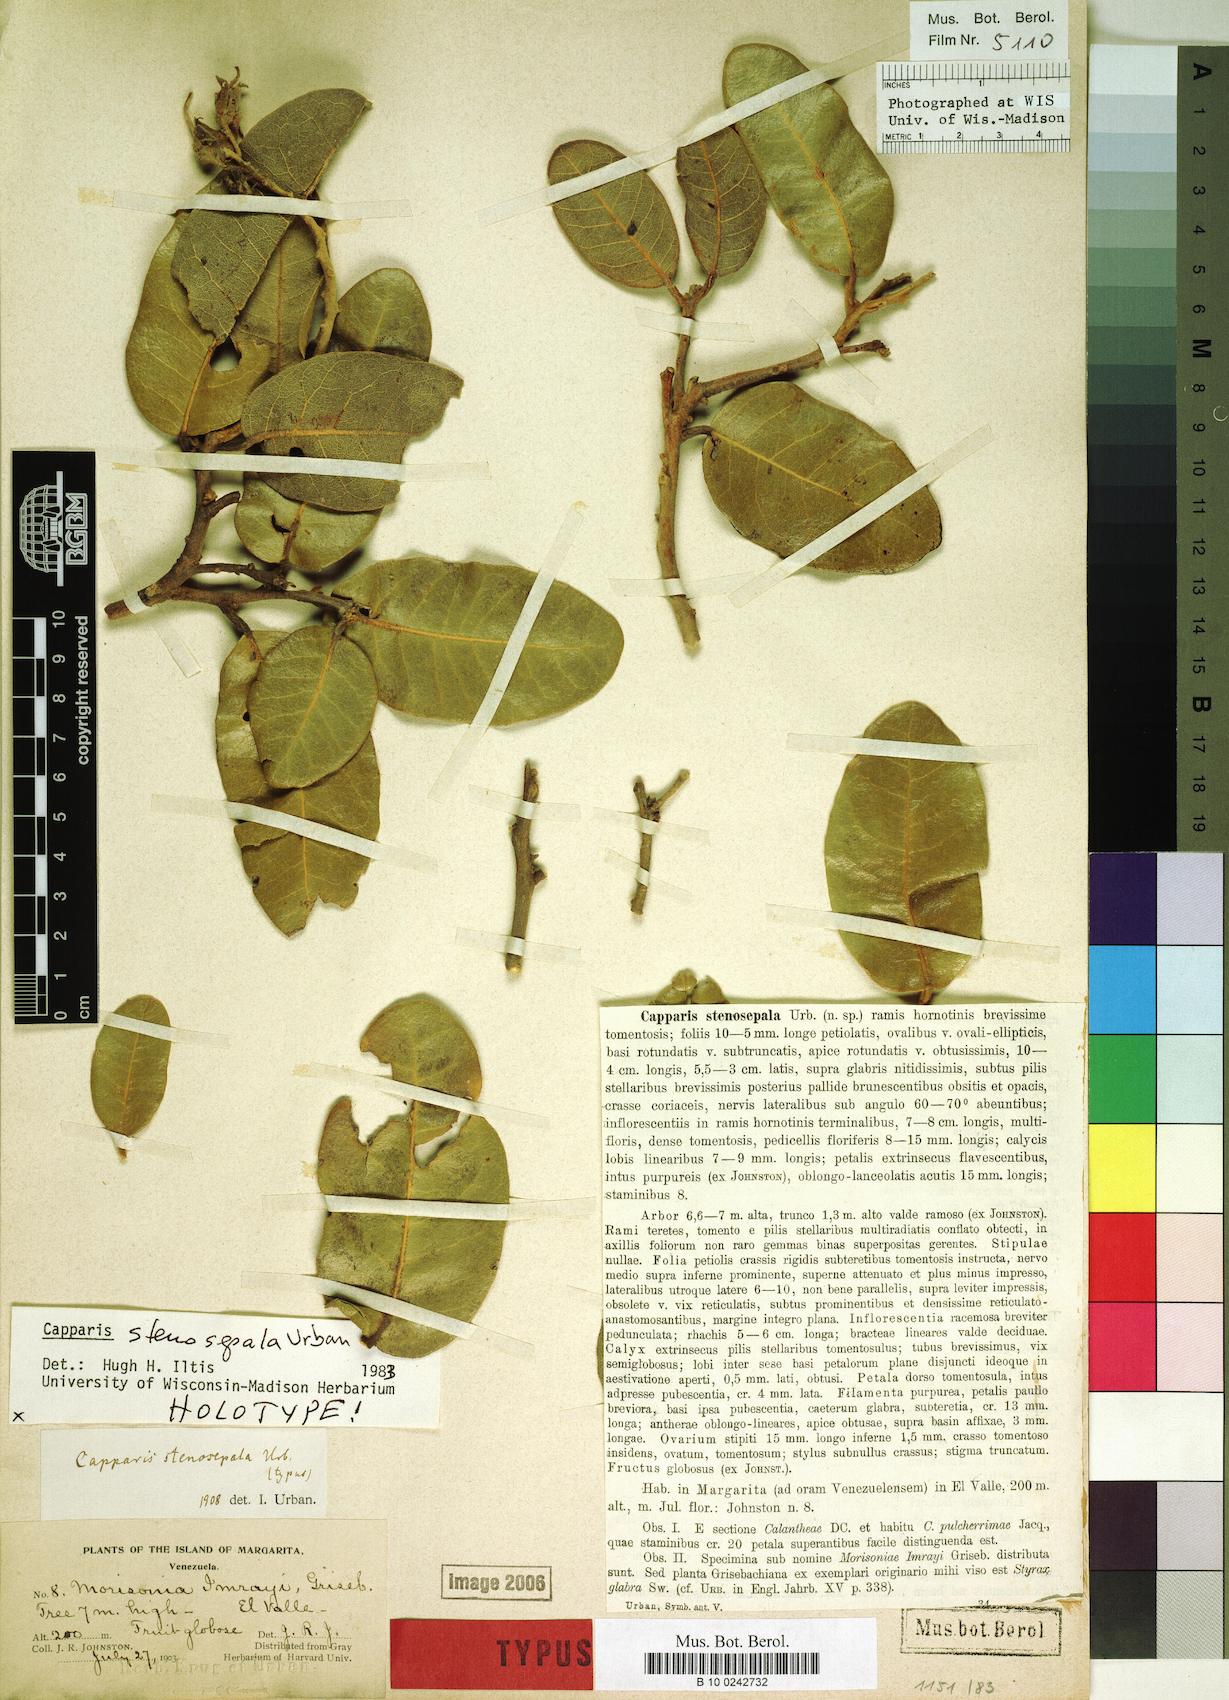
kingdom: Plantae
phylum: Tracheophyta
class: Magnoliopsida
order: Brassicales
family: Capparaceae
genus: Calanthea
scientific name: Calanthea stenosepala
